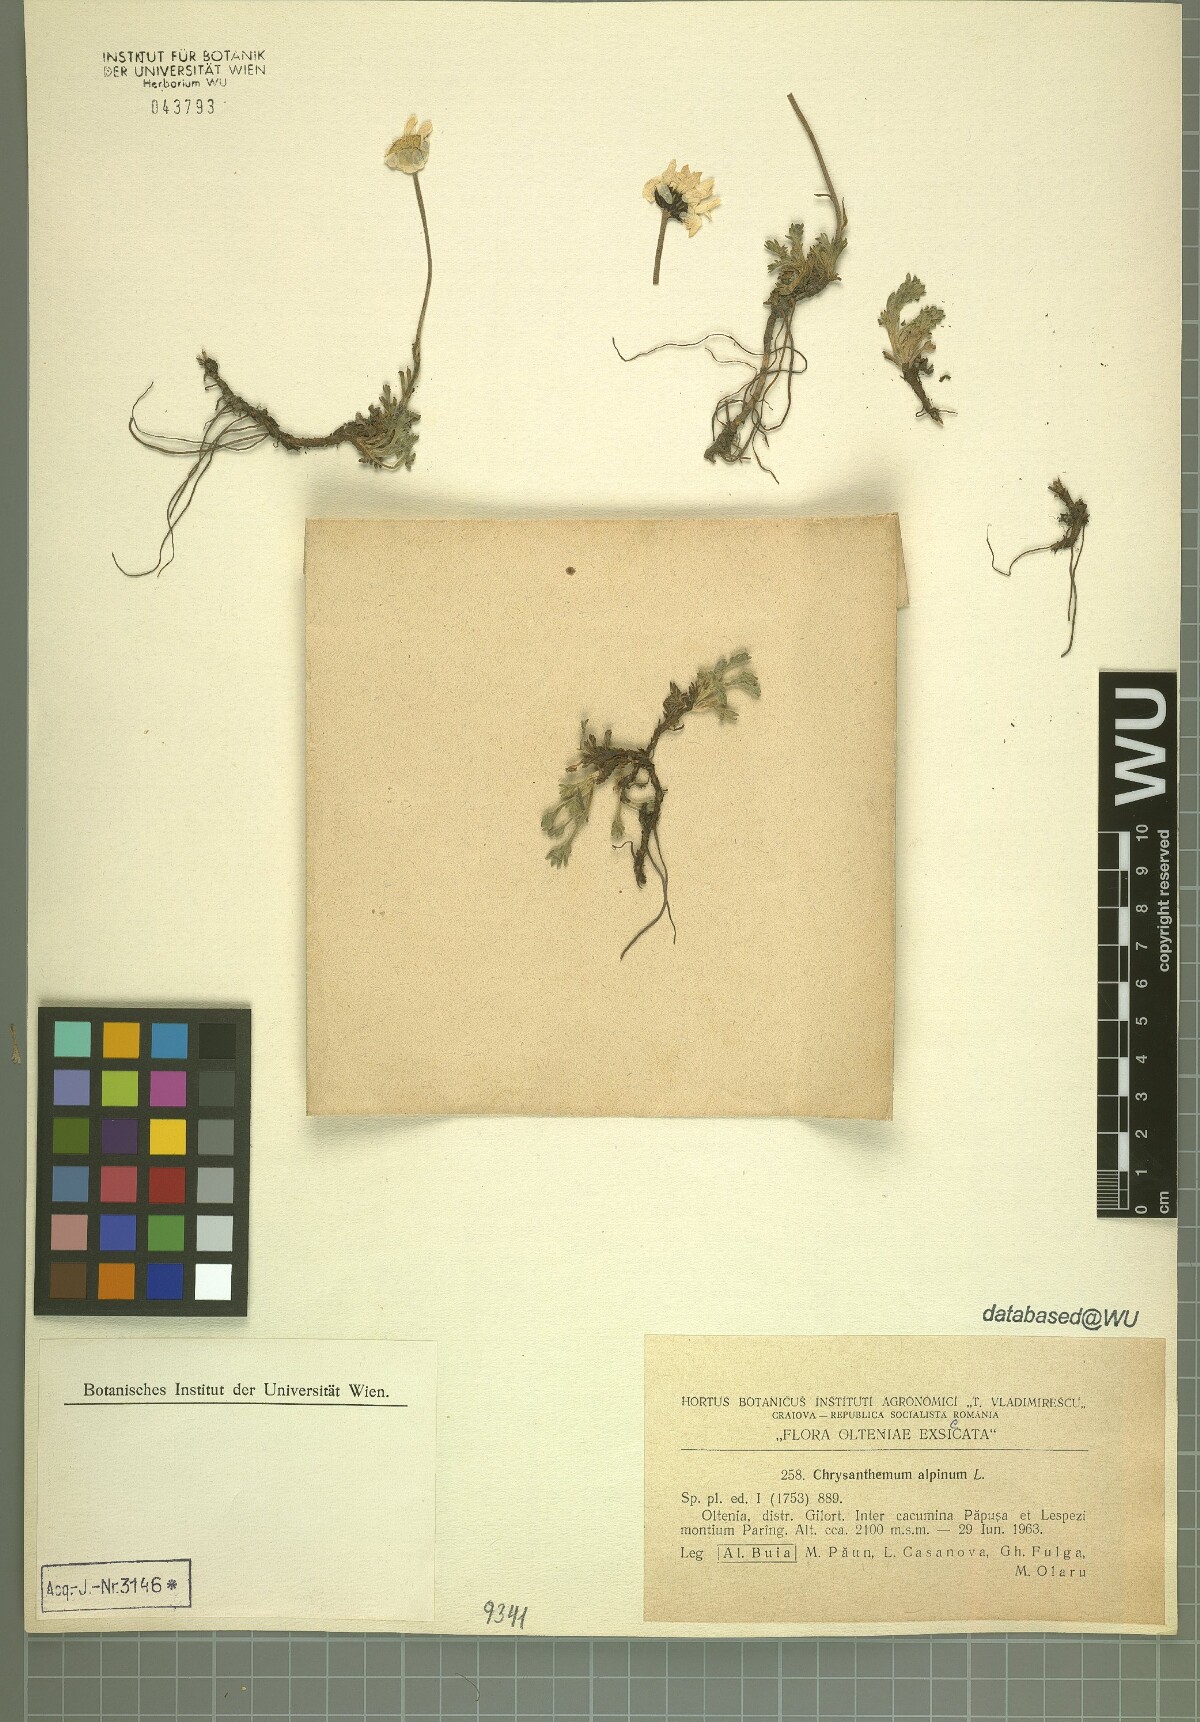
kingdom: Plantae
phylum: Tracheophyta
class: Magnoliopsida
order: Asterales
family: Asteraceae
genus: Leucanthemopsis
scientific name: Leucanthemopsis alpina
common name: Alpine moon daisy
